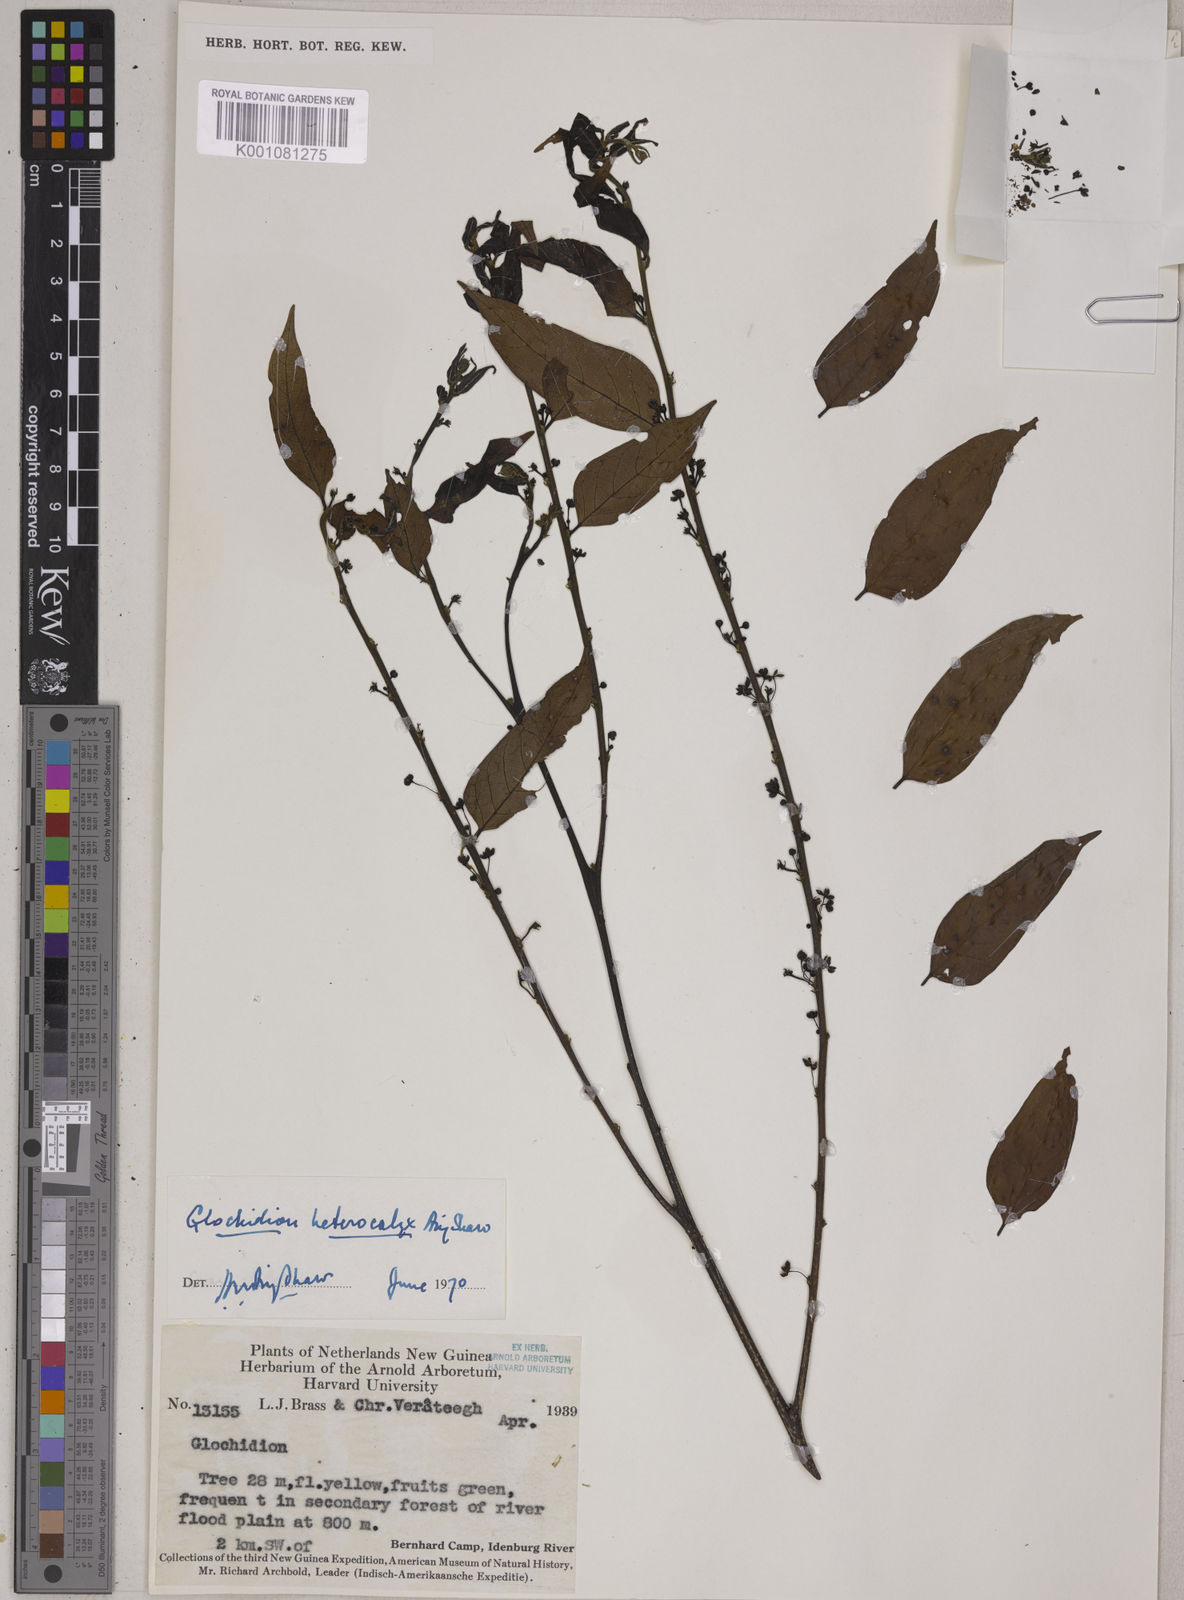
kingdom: Plantae
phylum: Tracheophyta
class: Magnoliopsida
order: Malpighiales
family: Phyllanthaceae
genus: Glochidion
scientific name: Glochidion heterocalyx
